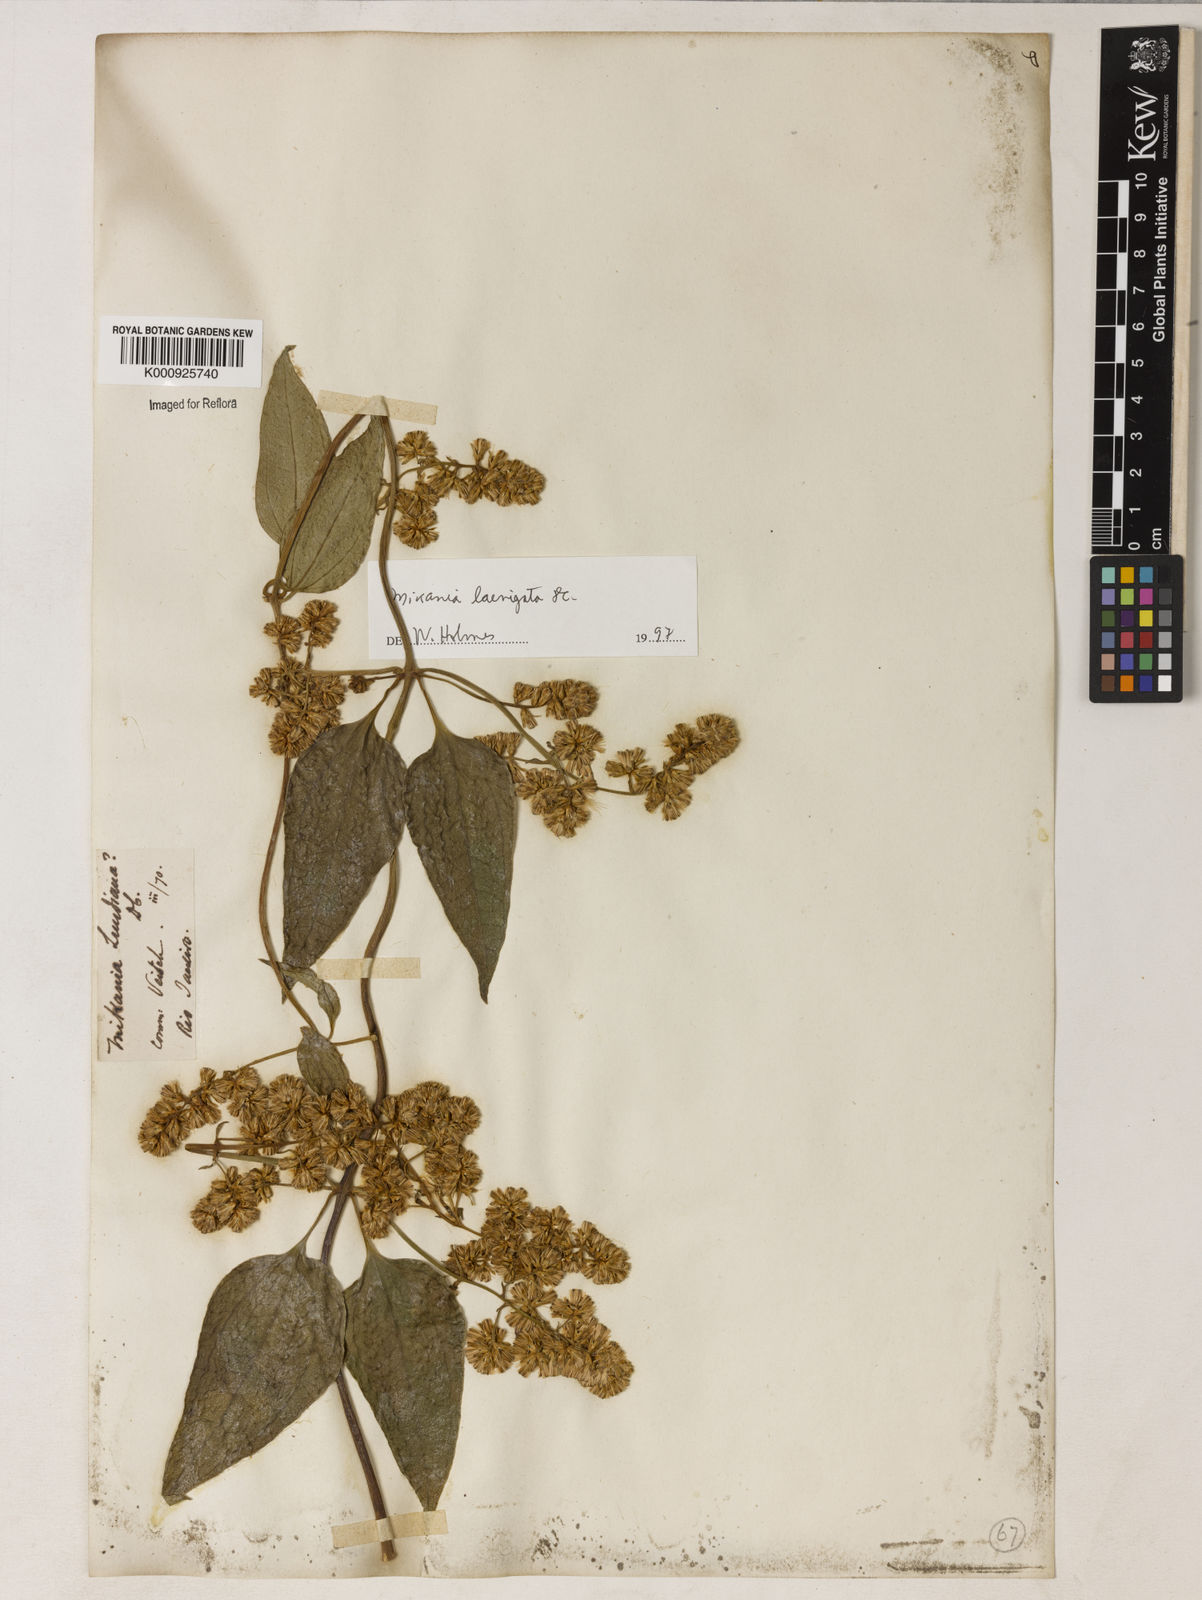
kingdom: Plantae
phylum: Tracheophyta
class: Magnoliopsida
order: Asterales
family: Asteraceae
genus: Mikania
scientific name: Mikania smilacina
